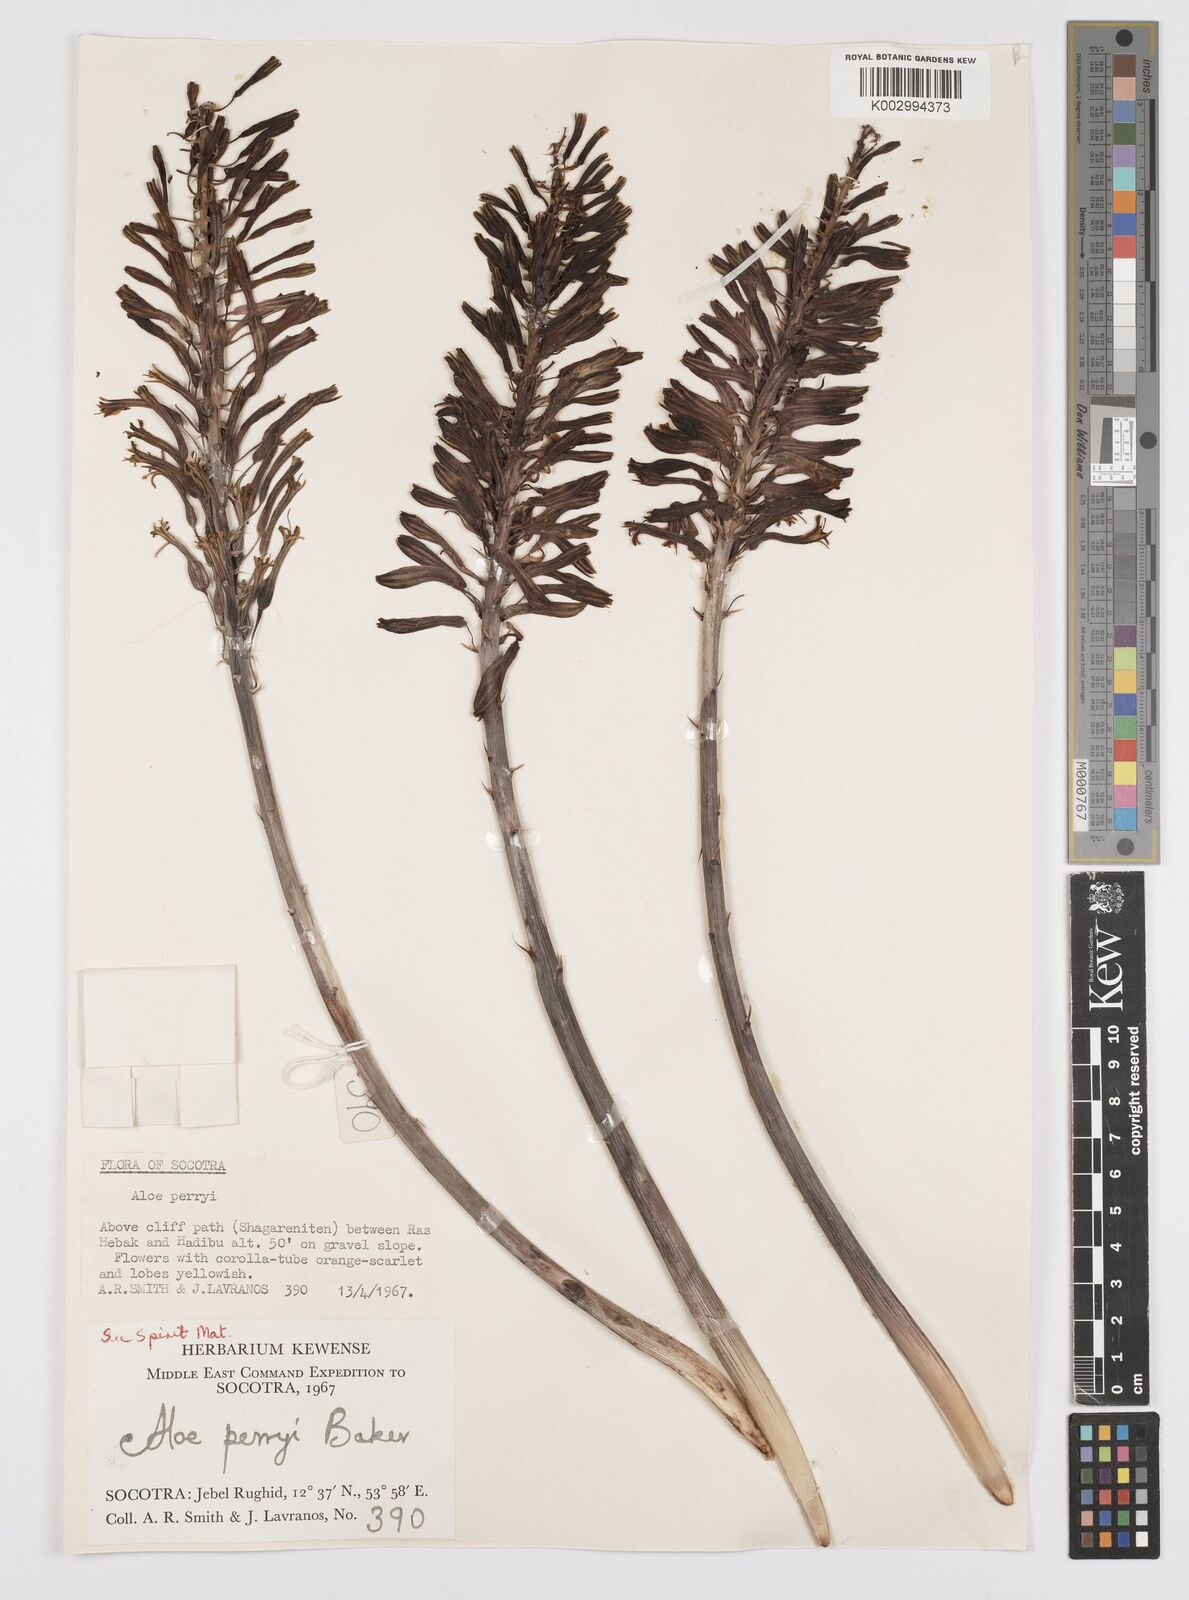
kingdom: Plantae
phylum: Tracheophyta
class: Liliopsida
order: Asparagales
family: Asphodelaceae
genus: Aloe
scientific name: Aloe perryi
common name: Socotrine aloe
